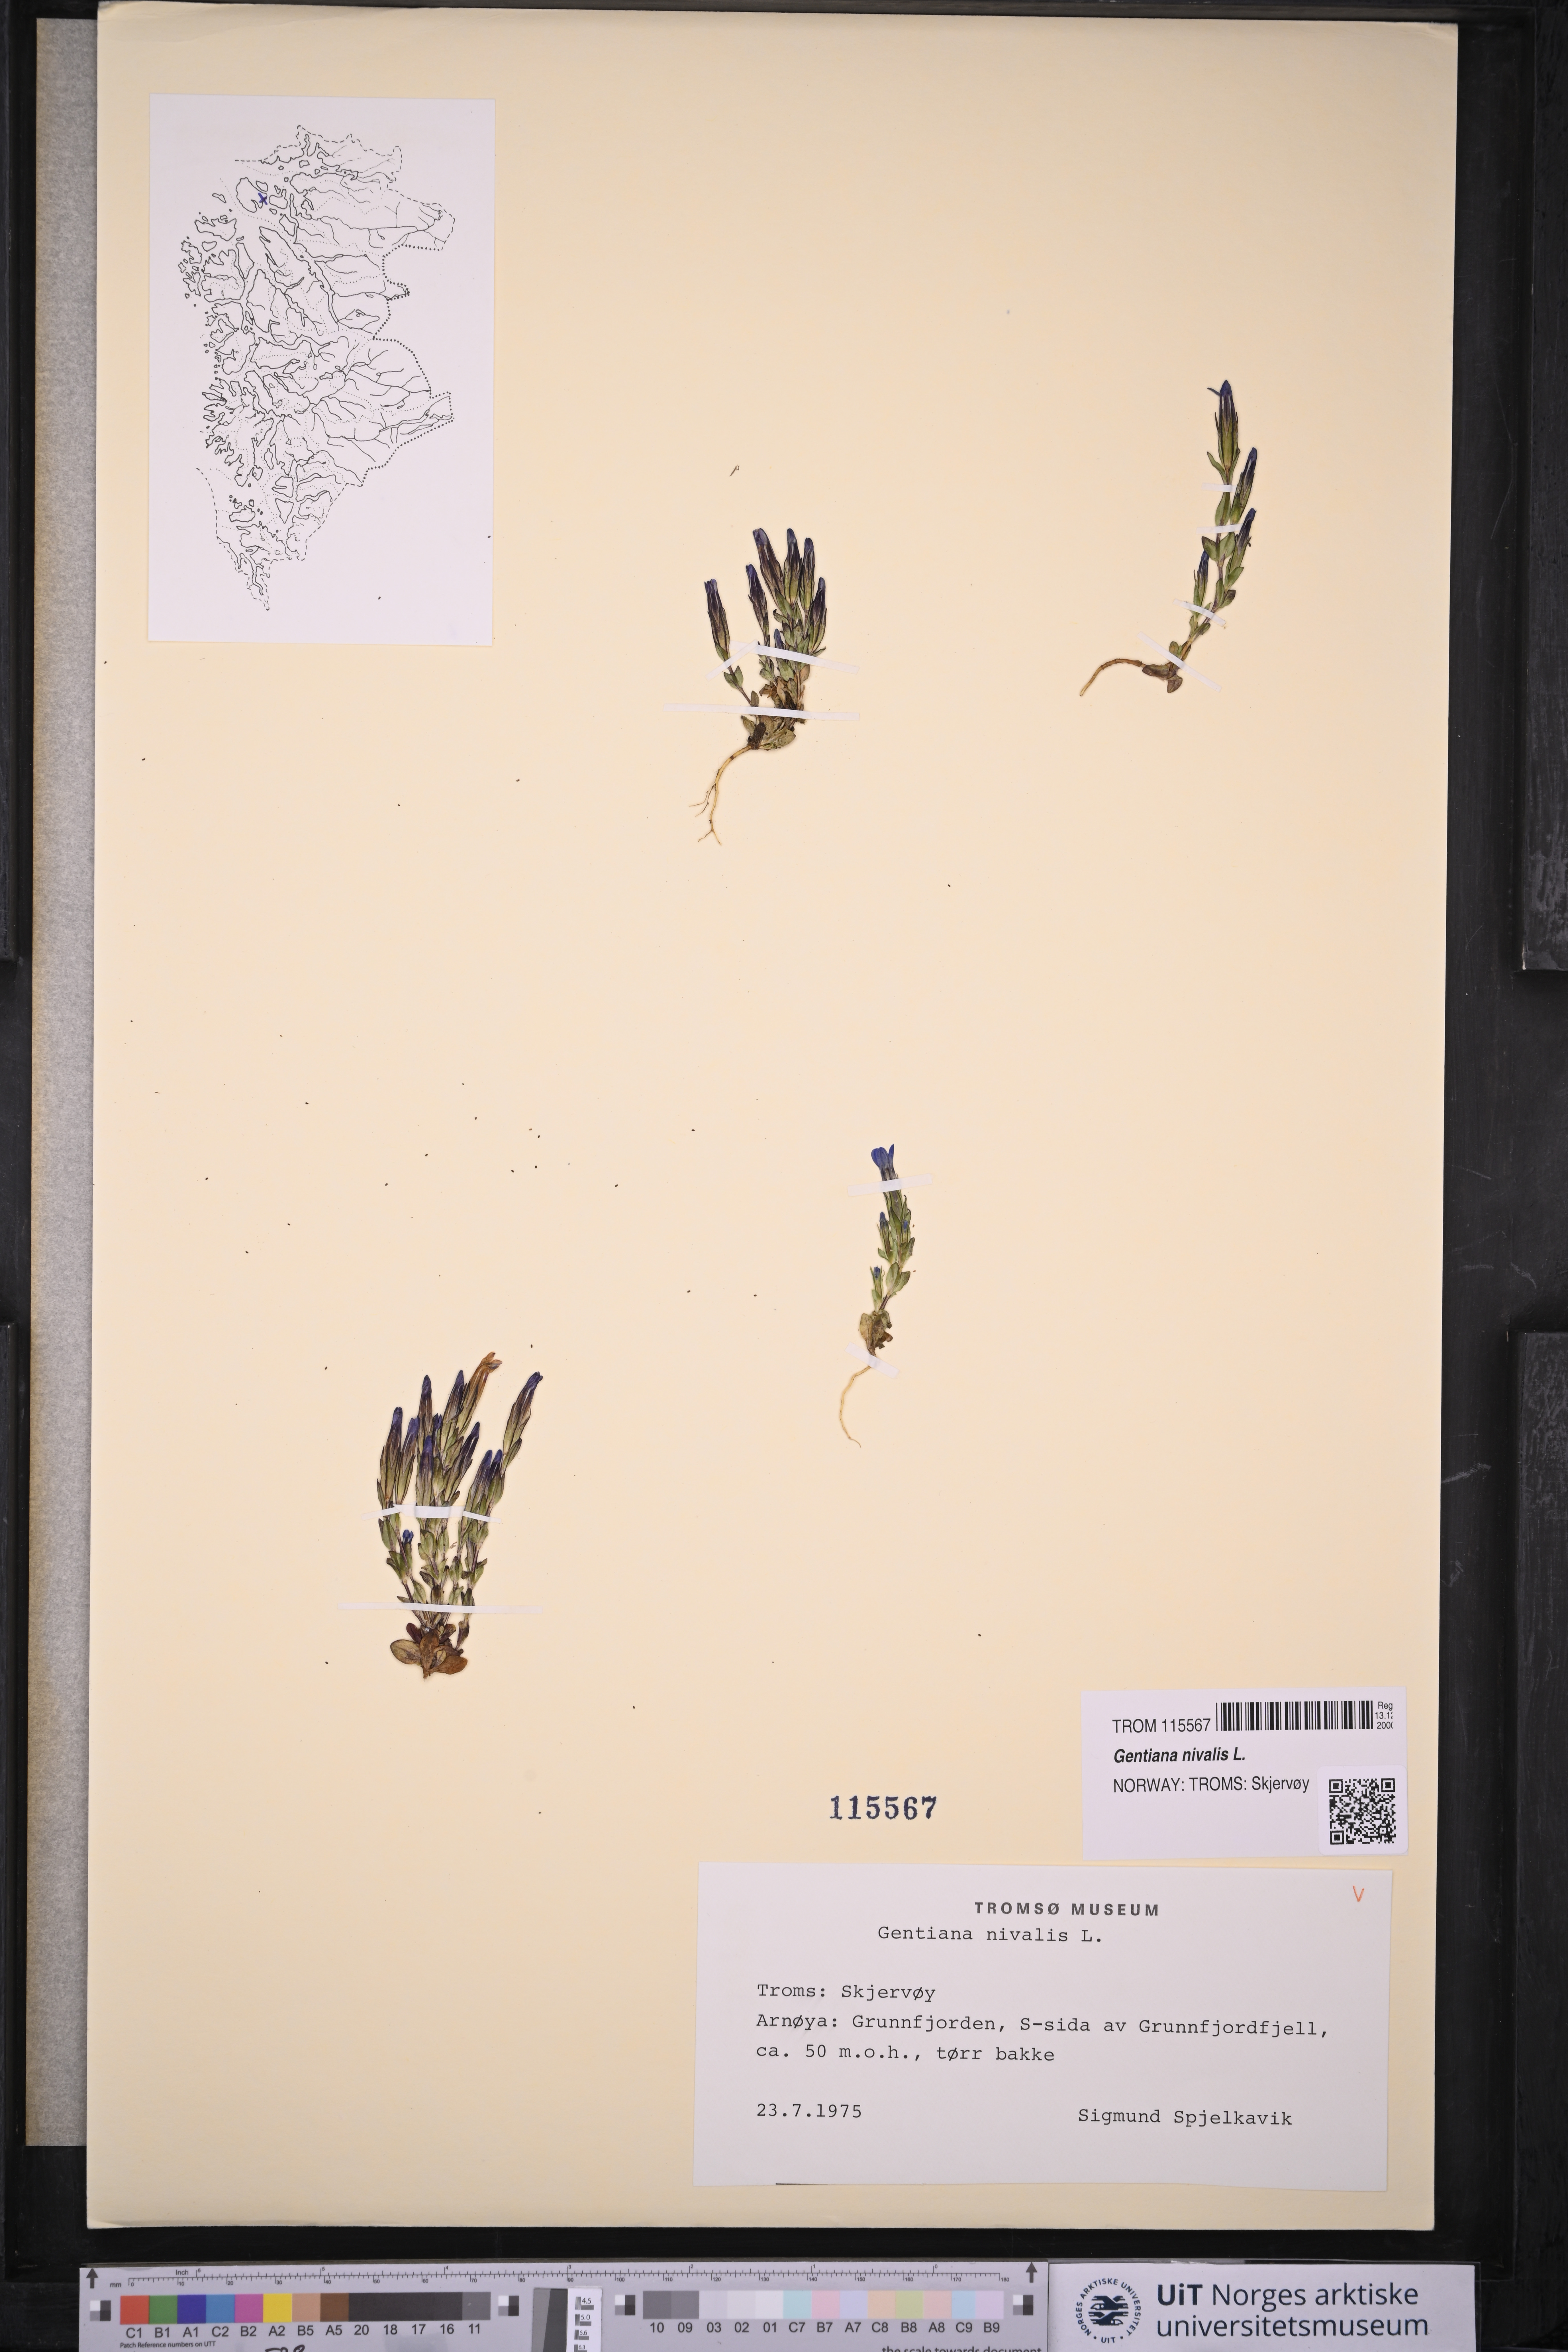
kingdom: Plantae
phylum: Tracheophyta
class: Magnoliopsida
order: Gentianales
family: Gentianaceae
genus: Gentiana
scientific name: Gentiana nivalis
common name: Alpine gentian
